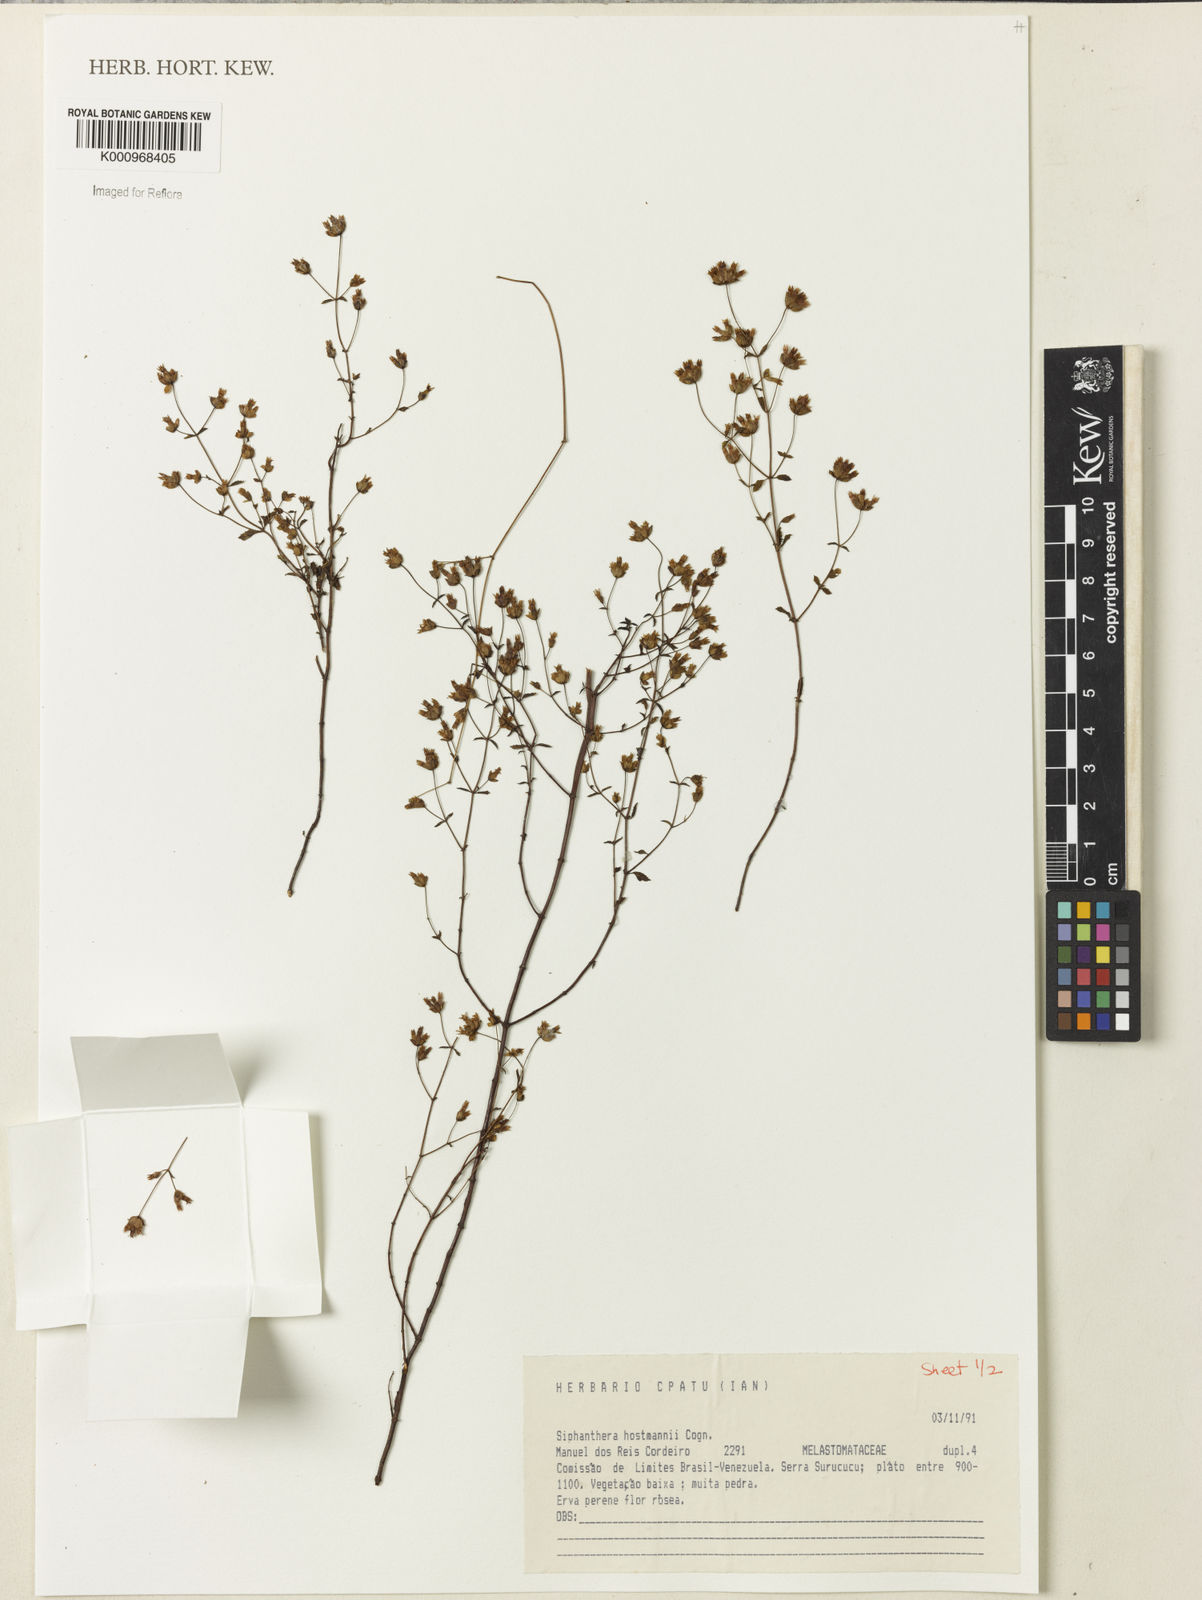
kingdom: Plantae
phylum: Tracheophyta
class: Magnoliopsida
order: Myrtales
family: Melastomataceae
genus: Siphanthera
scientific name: Siphanthera hostmannii
